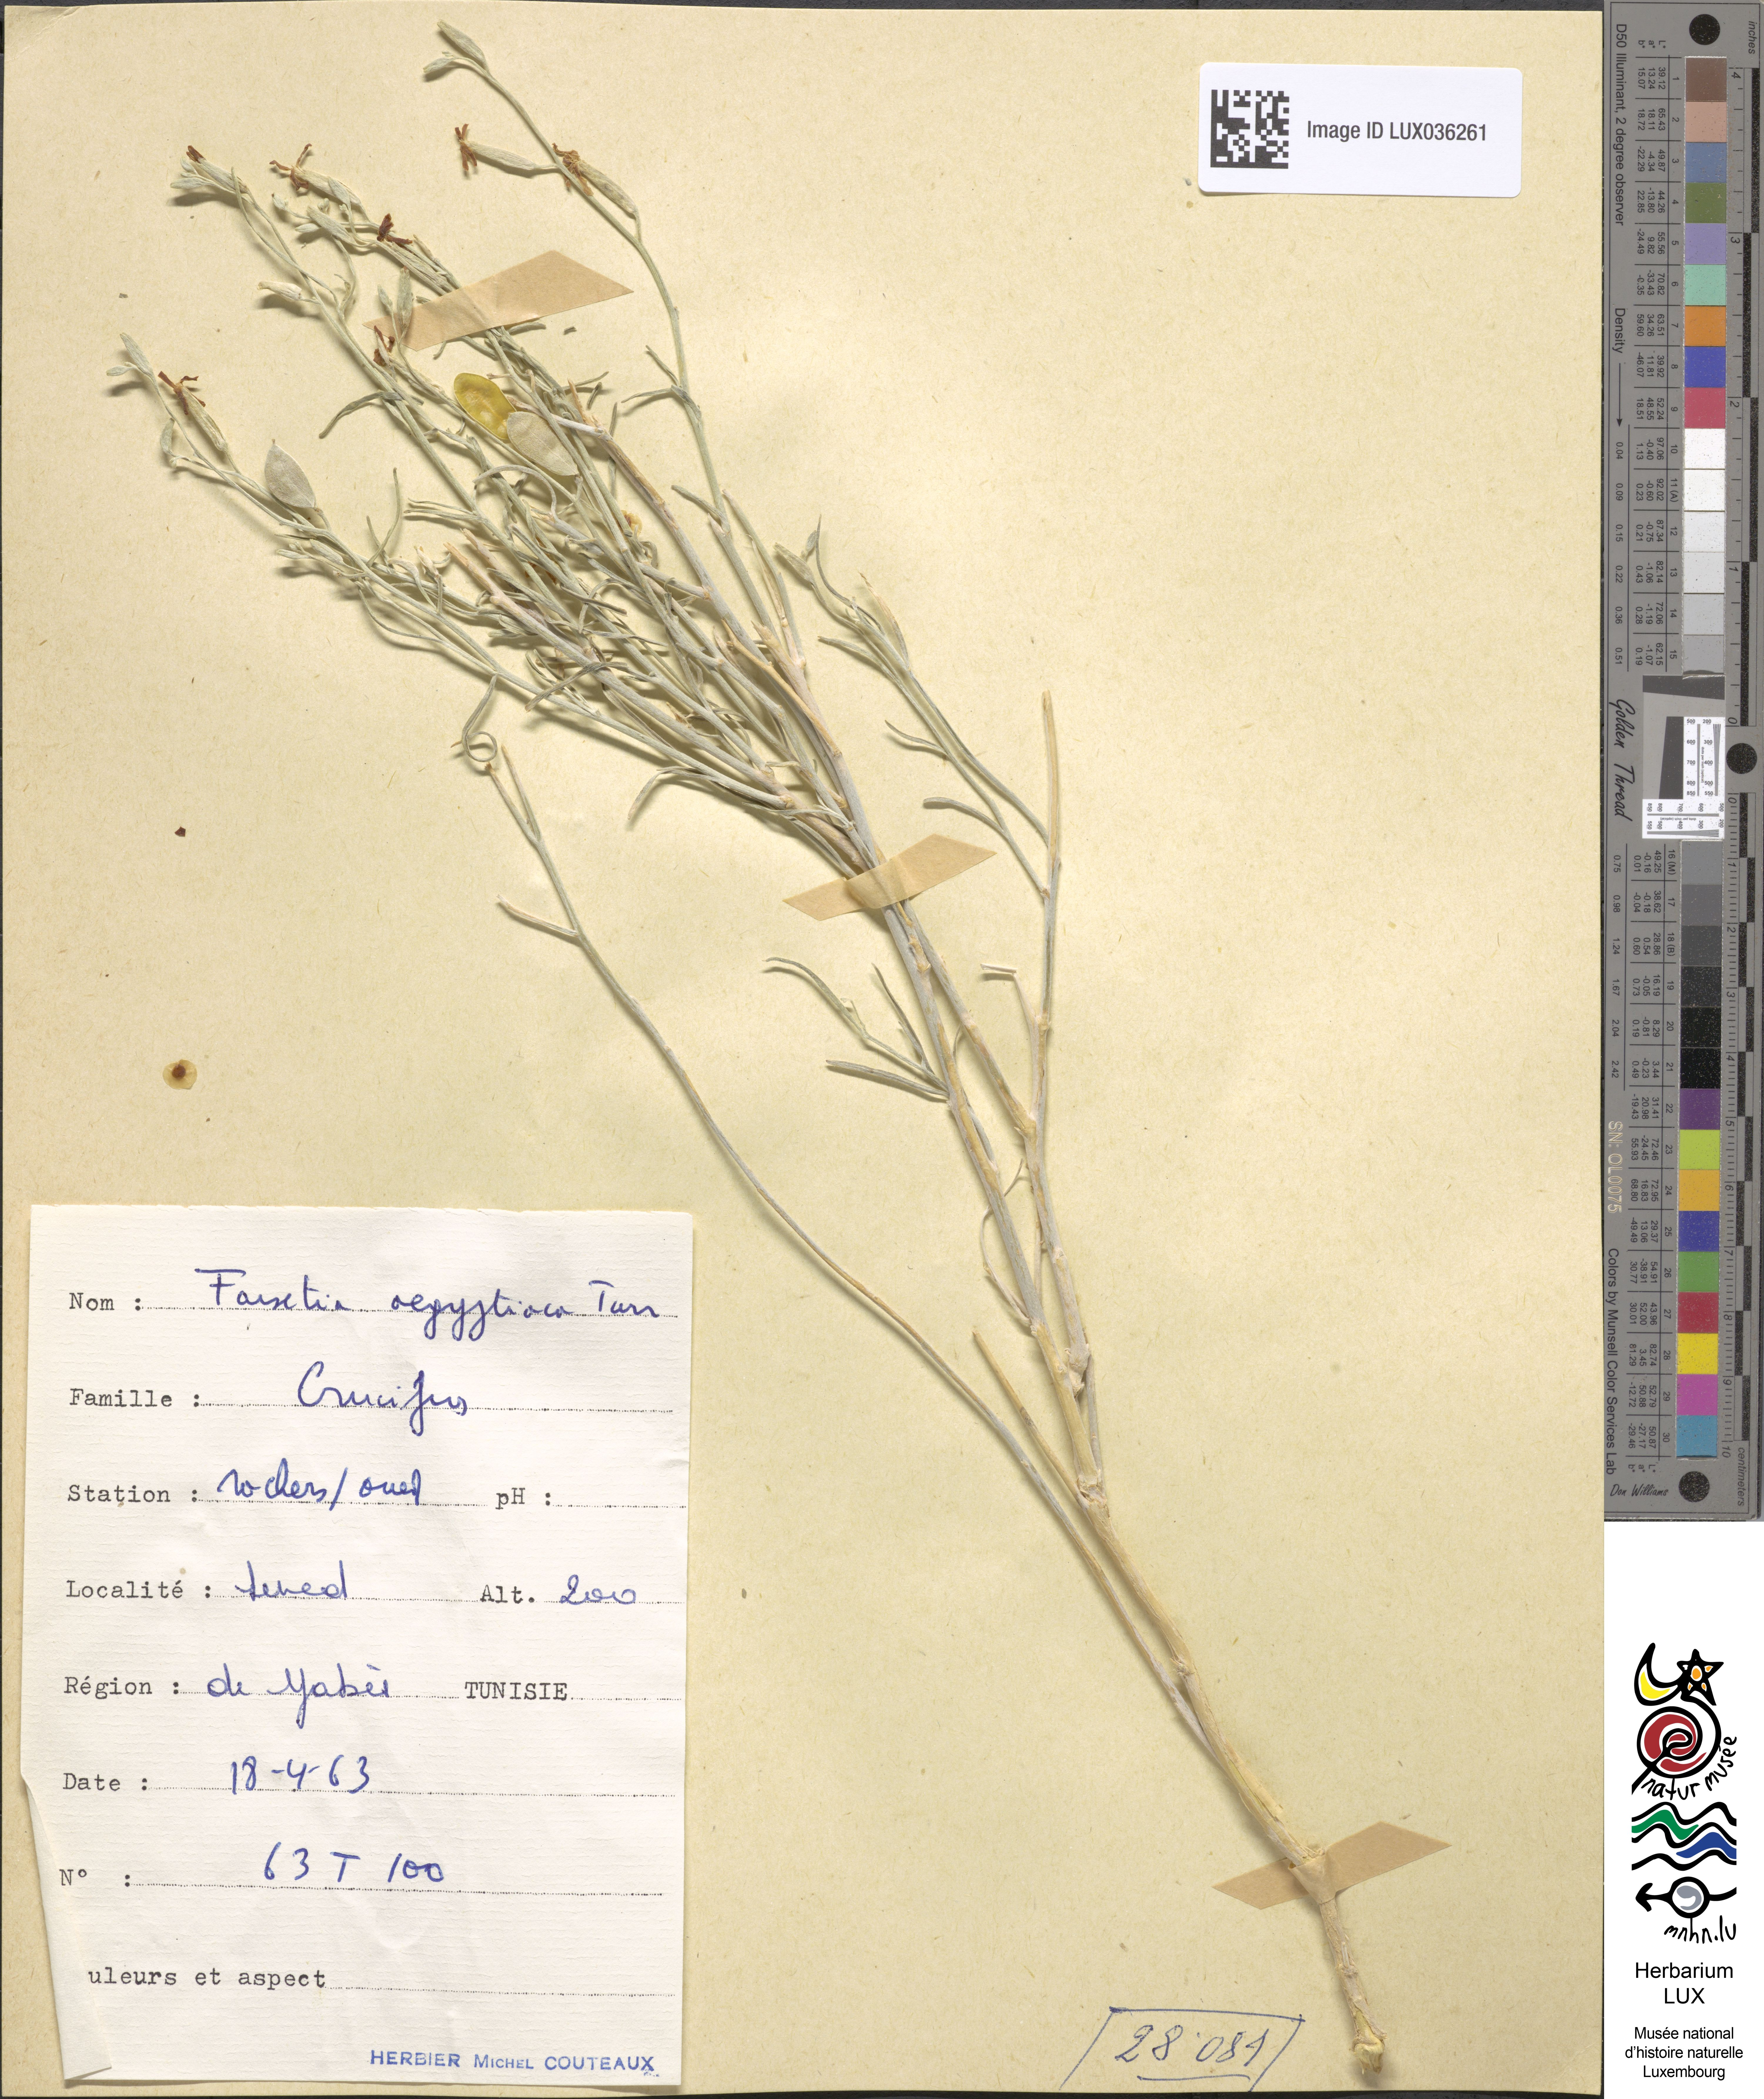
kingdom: Plantae
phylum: Tracheophyta
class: Magnoliopsida
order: Brassicales
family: Brassicaceae
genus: Farsetia
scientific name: Farsetia aegyptia
